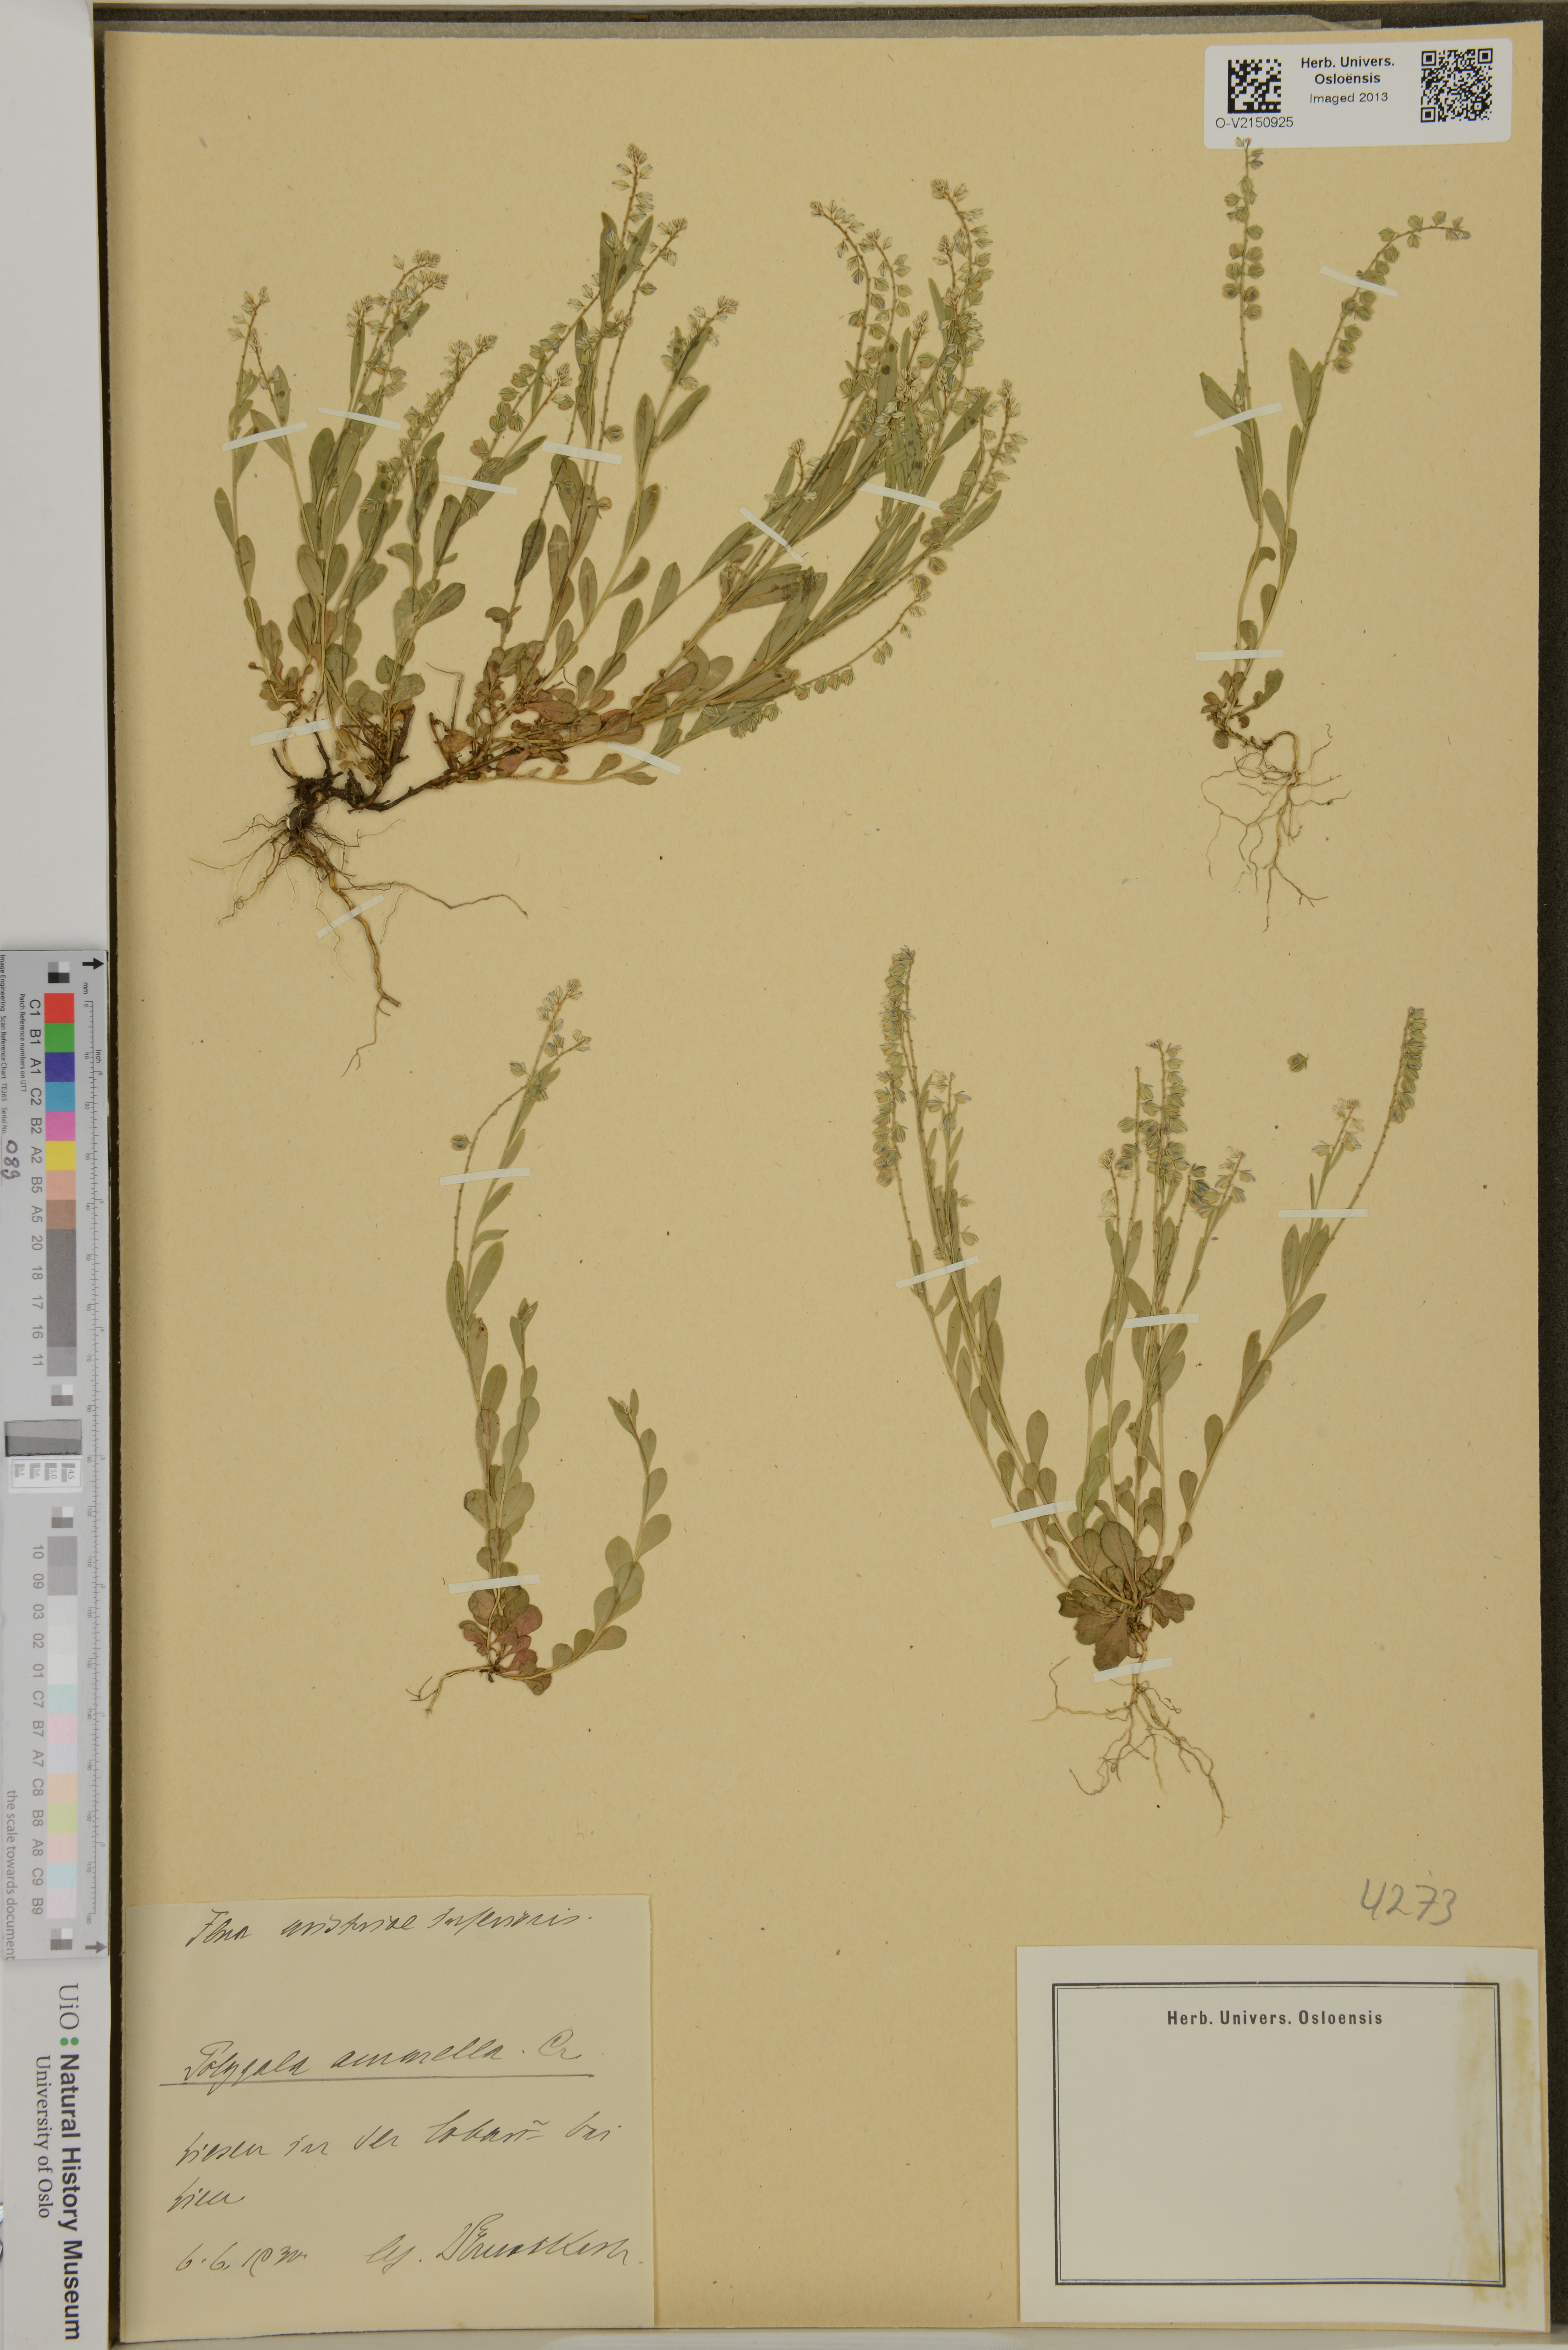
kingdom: Plantae
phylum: Tracheophyta
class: Magnoliopsida
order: Fabales
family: Polygalaceae
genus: Polygala
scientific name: Polygala amarella
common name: Dwarf milkwort
